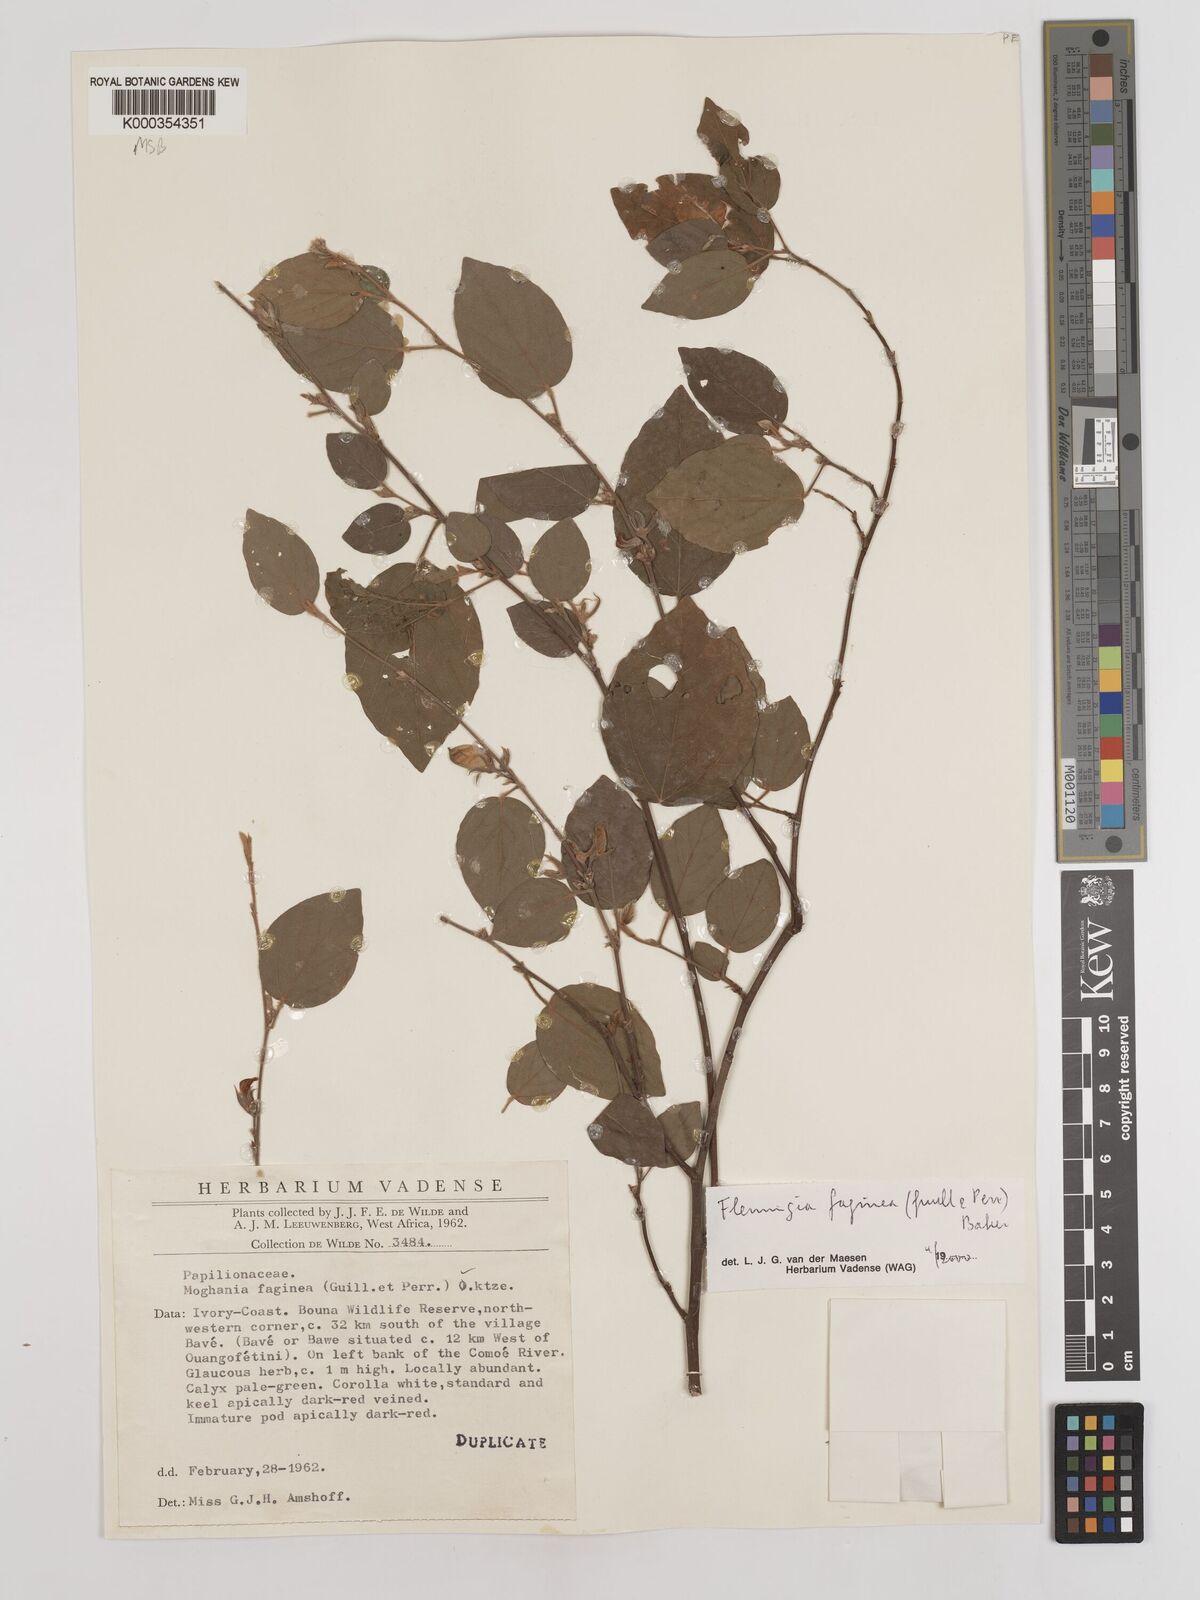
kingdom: Plantae
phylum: Tracheophyta
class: Magnoliopsida
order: Fabales
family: Fabaceae
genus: Flemingia
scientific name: Flemingia faginea
